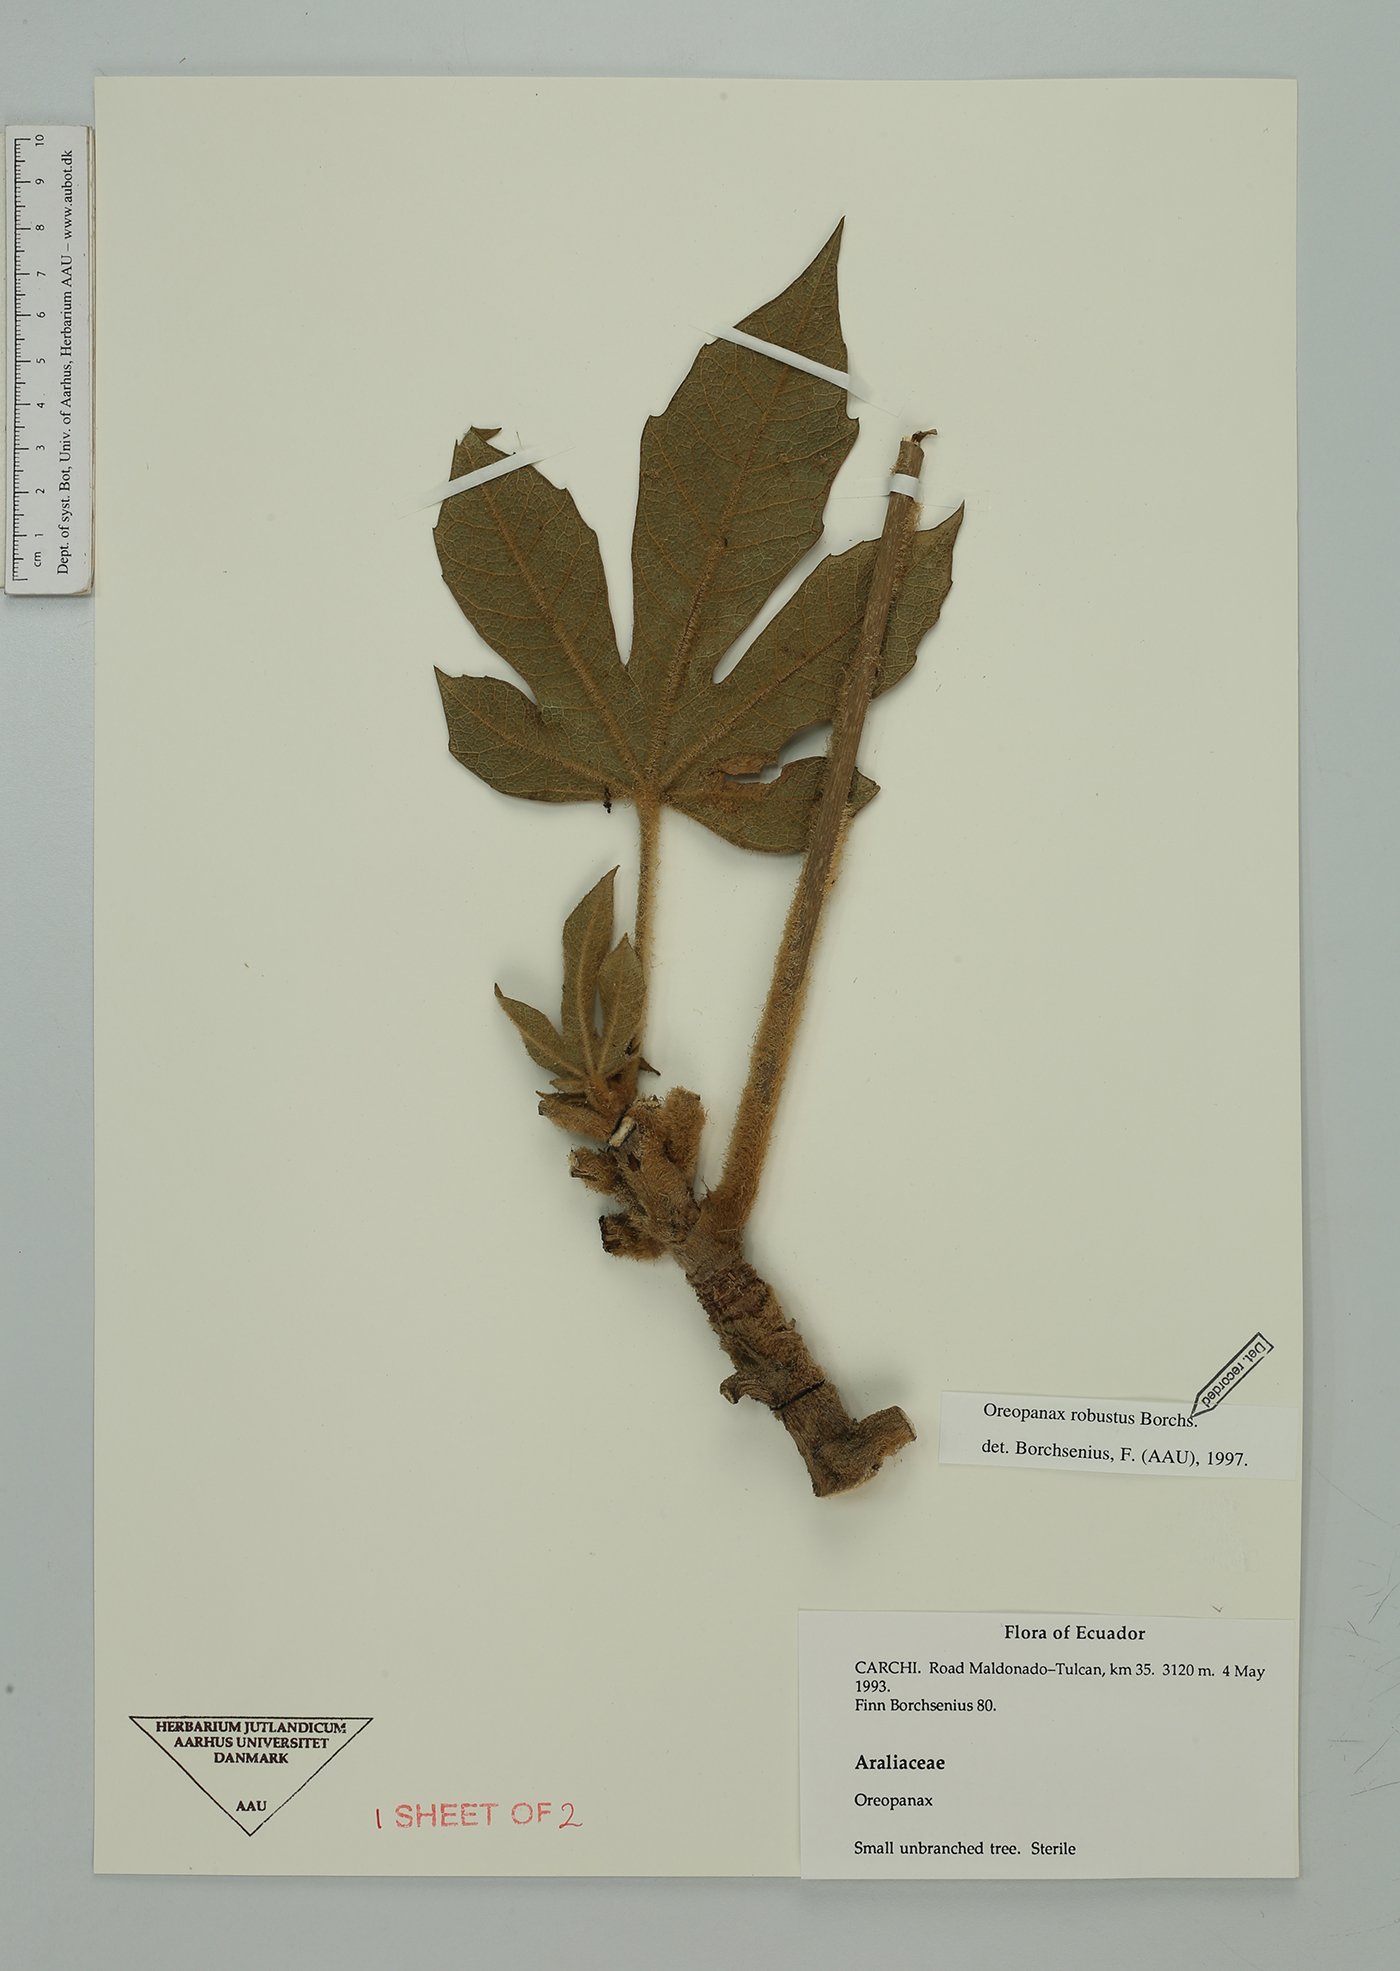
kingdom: Plantae
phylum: Tracheophyta
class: Magnoliopsida
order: Apiales
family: Araliaceae
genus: Oreopanax
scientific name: Oreopanax robustus
